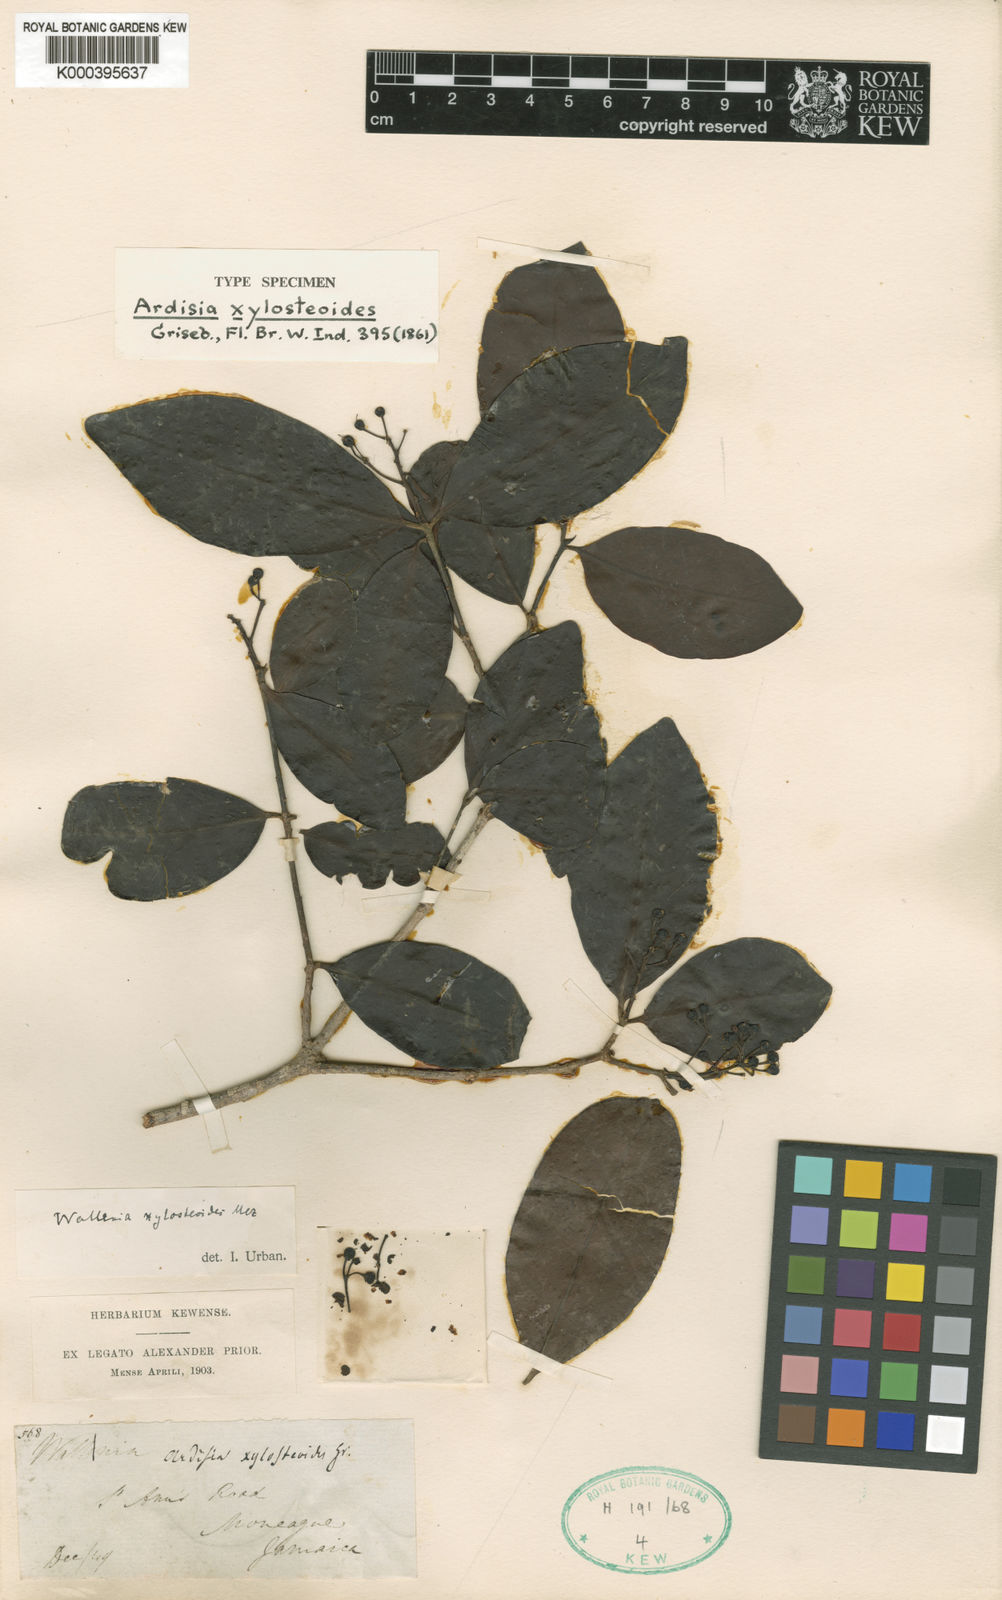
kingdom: Plantae
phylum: Tracheophyta
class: Magnoliopsida
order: Ericales
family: Primulaceae
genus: Wallenia
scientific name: Wallenia xylosteoides
